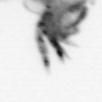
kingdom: Animalia
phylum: Annelida
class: Polychaeta
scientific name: Polychaeta
